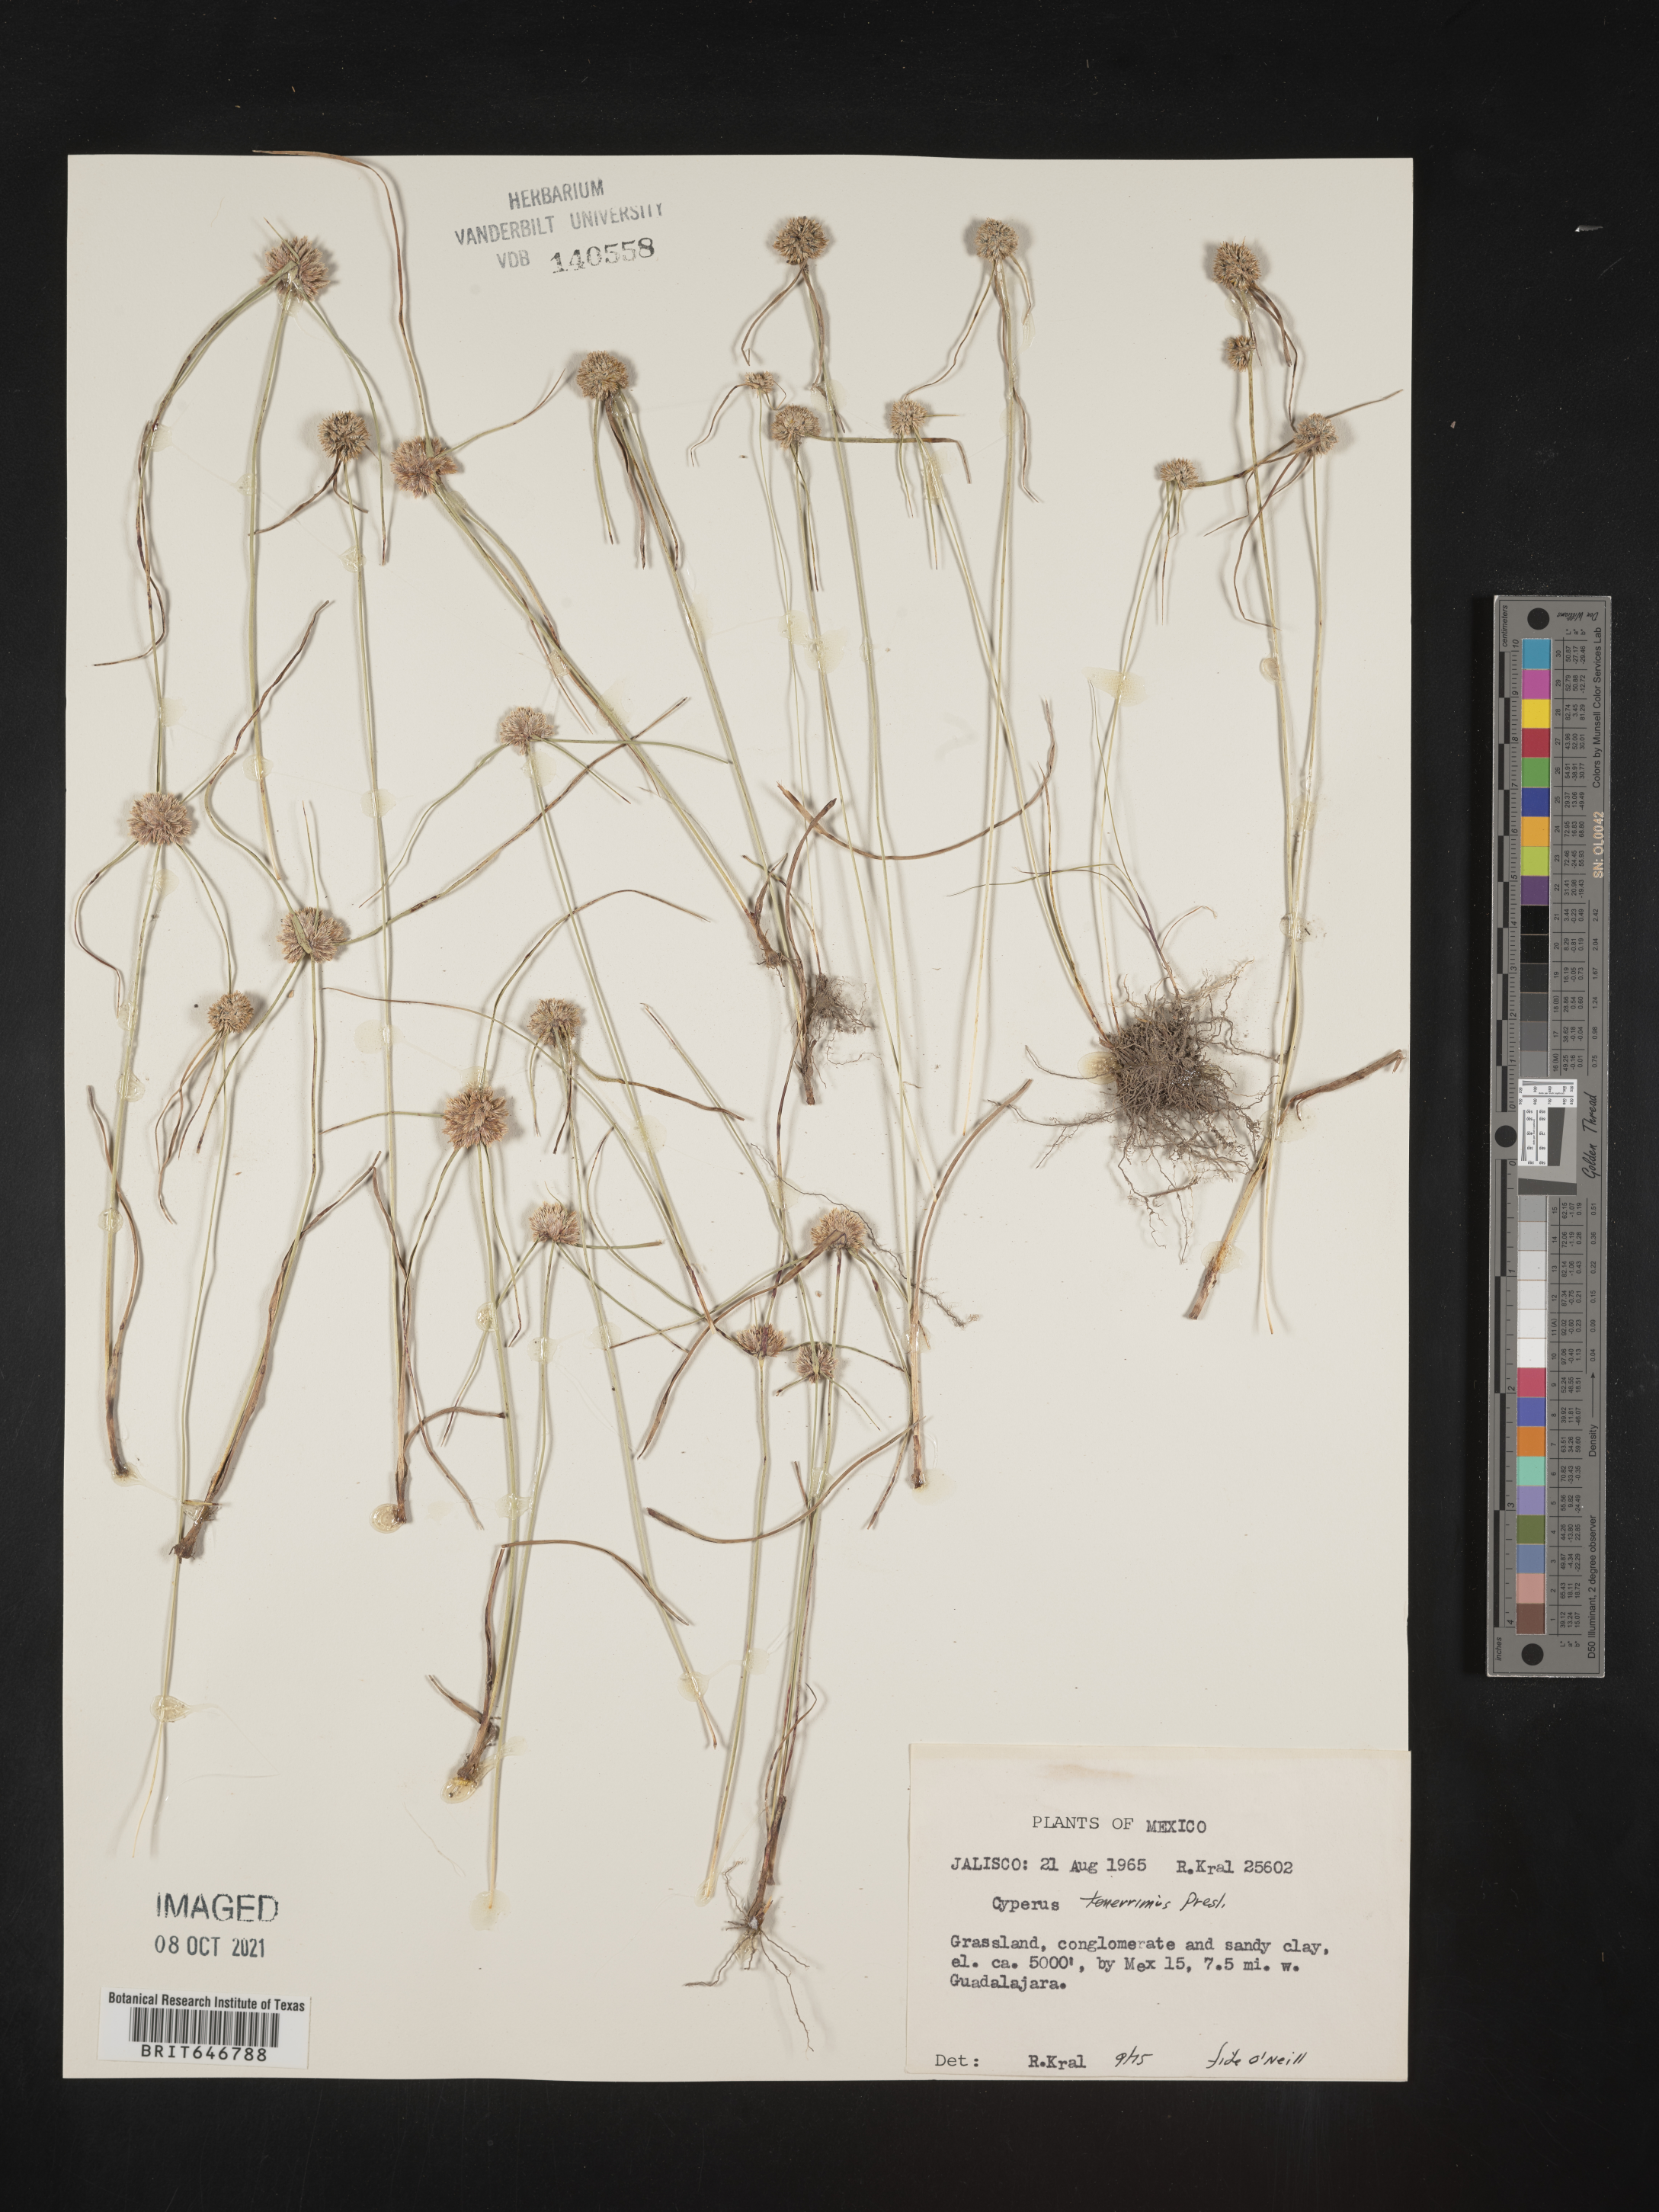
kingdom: Plantae
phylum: Tracheophyta
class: Liliopsida
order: Poales
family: Cyperaceae
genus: Cyperus
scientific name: Cyperus
